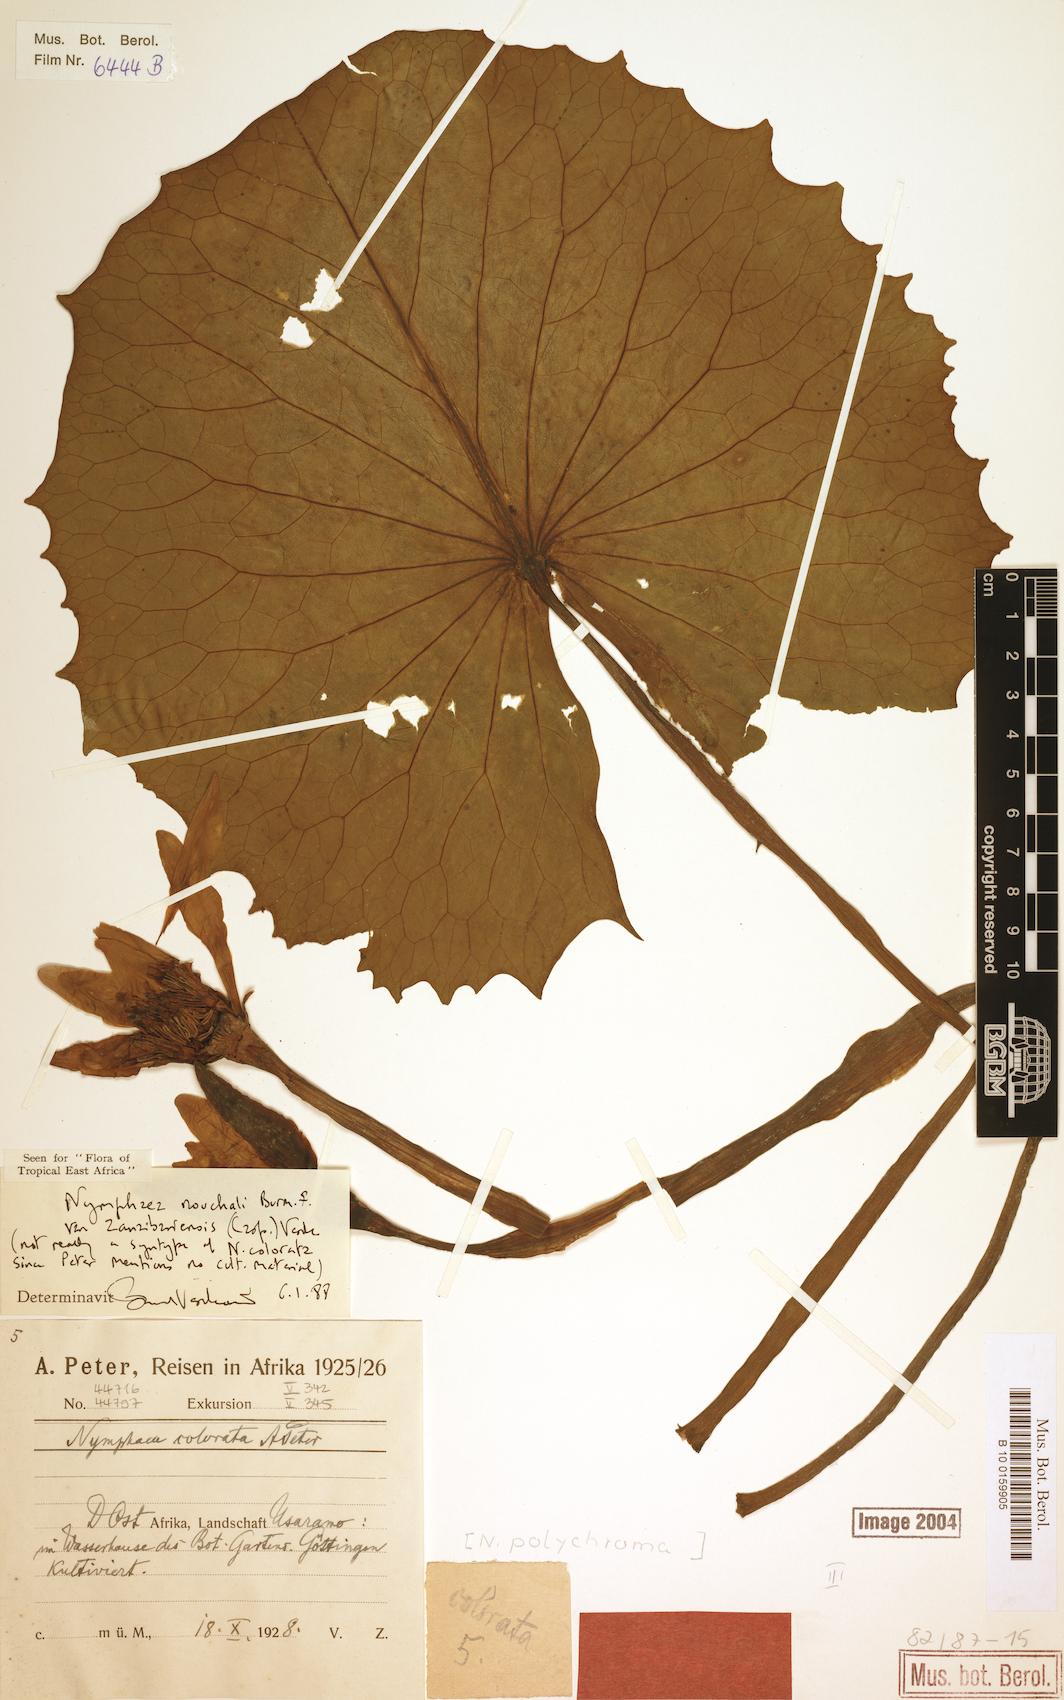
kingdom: Plantae
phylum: Tracheophyta
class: Magnoliopsida
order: Nymphaeales
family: Nymphaeaceae
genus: Nymphaea
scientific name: Nymphaea nouchali
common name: Blue lotus
